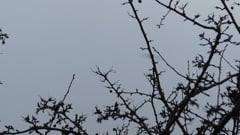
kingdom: Animalia
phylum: Chordata
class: Aves
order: Accipitriformes
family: Accipitridae
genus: Milvus
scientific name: Milvus milvus
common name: Red kite
